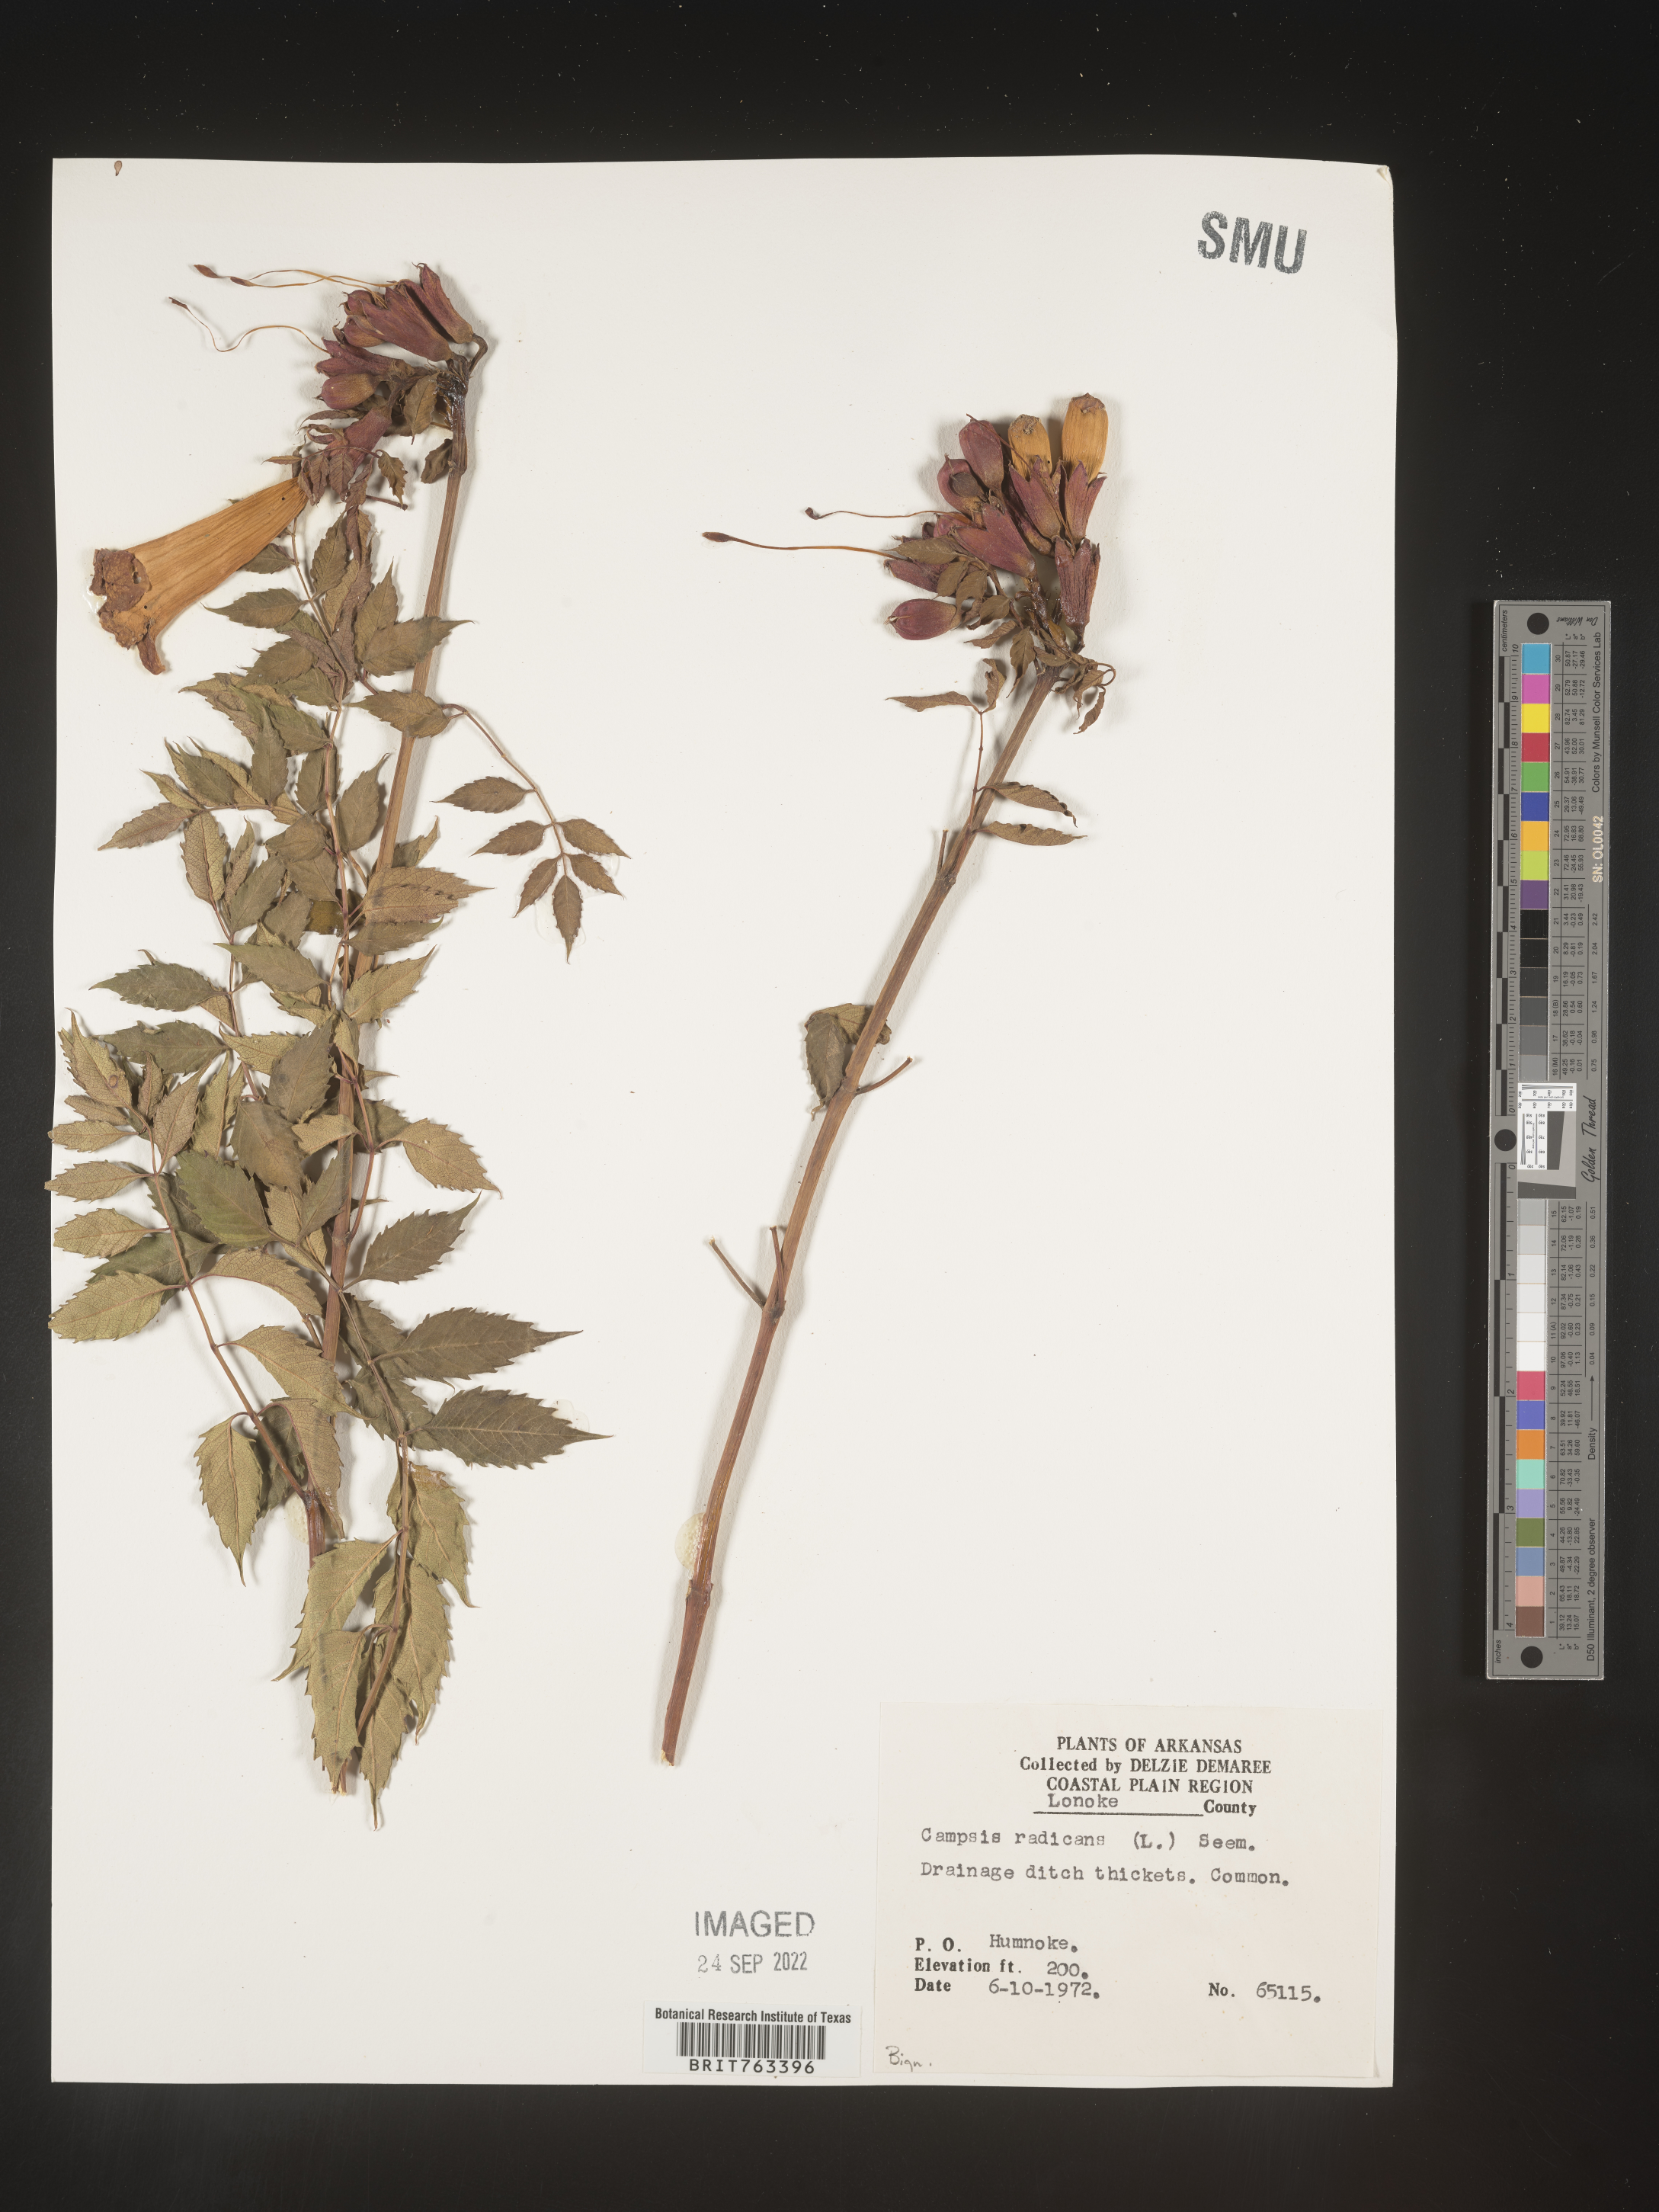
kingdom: Plantae
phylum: Tracheophyta
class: Magnoliopsida
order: Lamiales
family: Bignoniaceae
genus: Campsis
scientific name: Campsis radicans
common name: Trumpet-creeper
